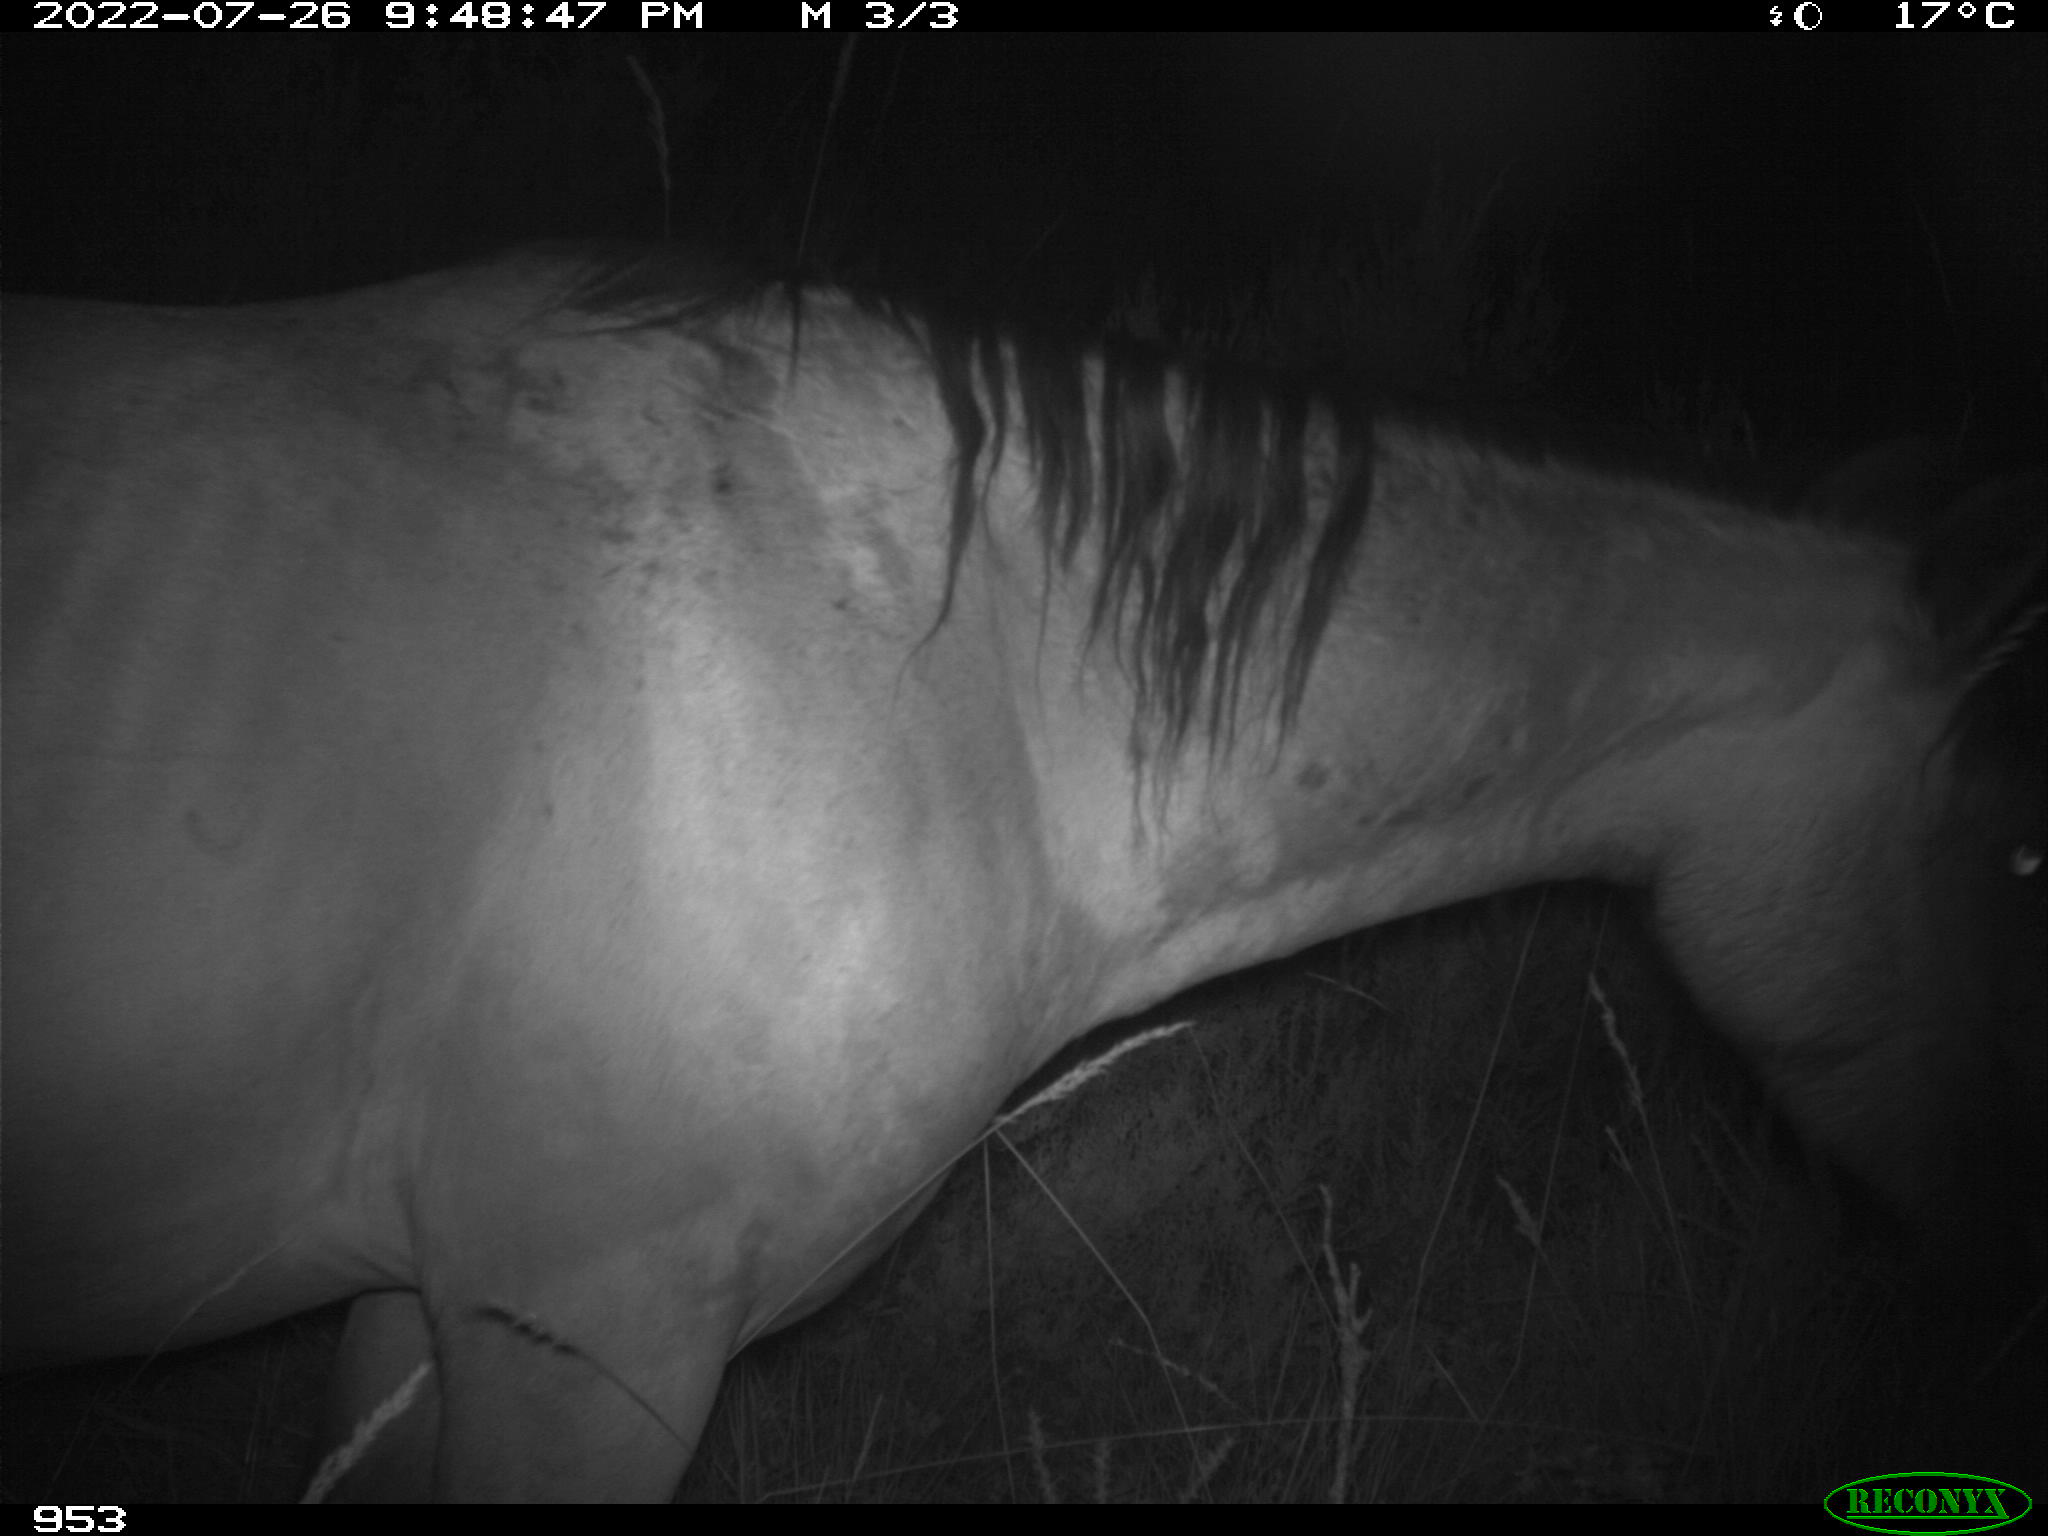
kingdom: Animalia
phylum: Chordata
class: Mammalia
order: Perissodactyla
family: Equidae
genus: Equus
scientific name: Equus caballus
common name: Horse
